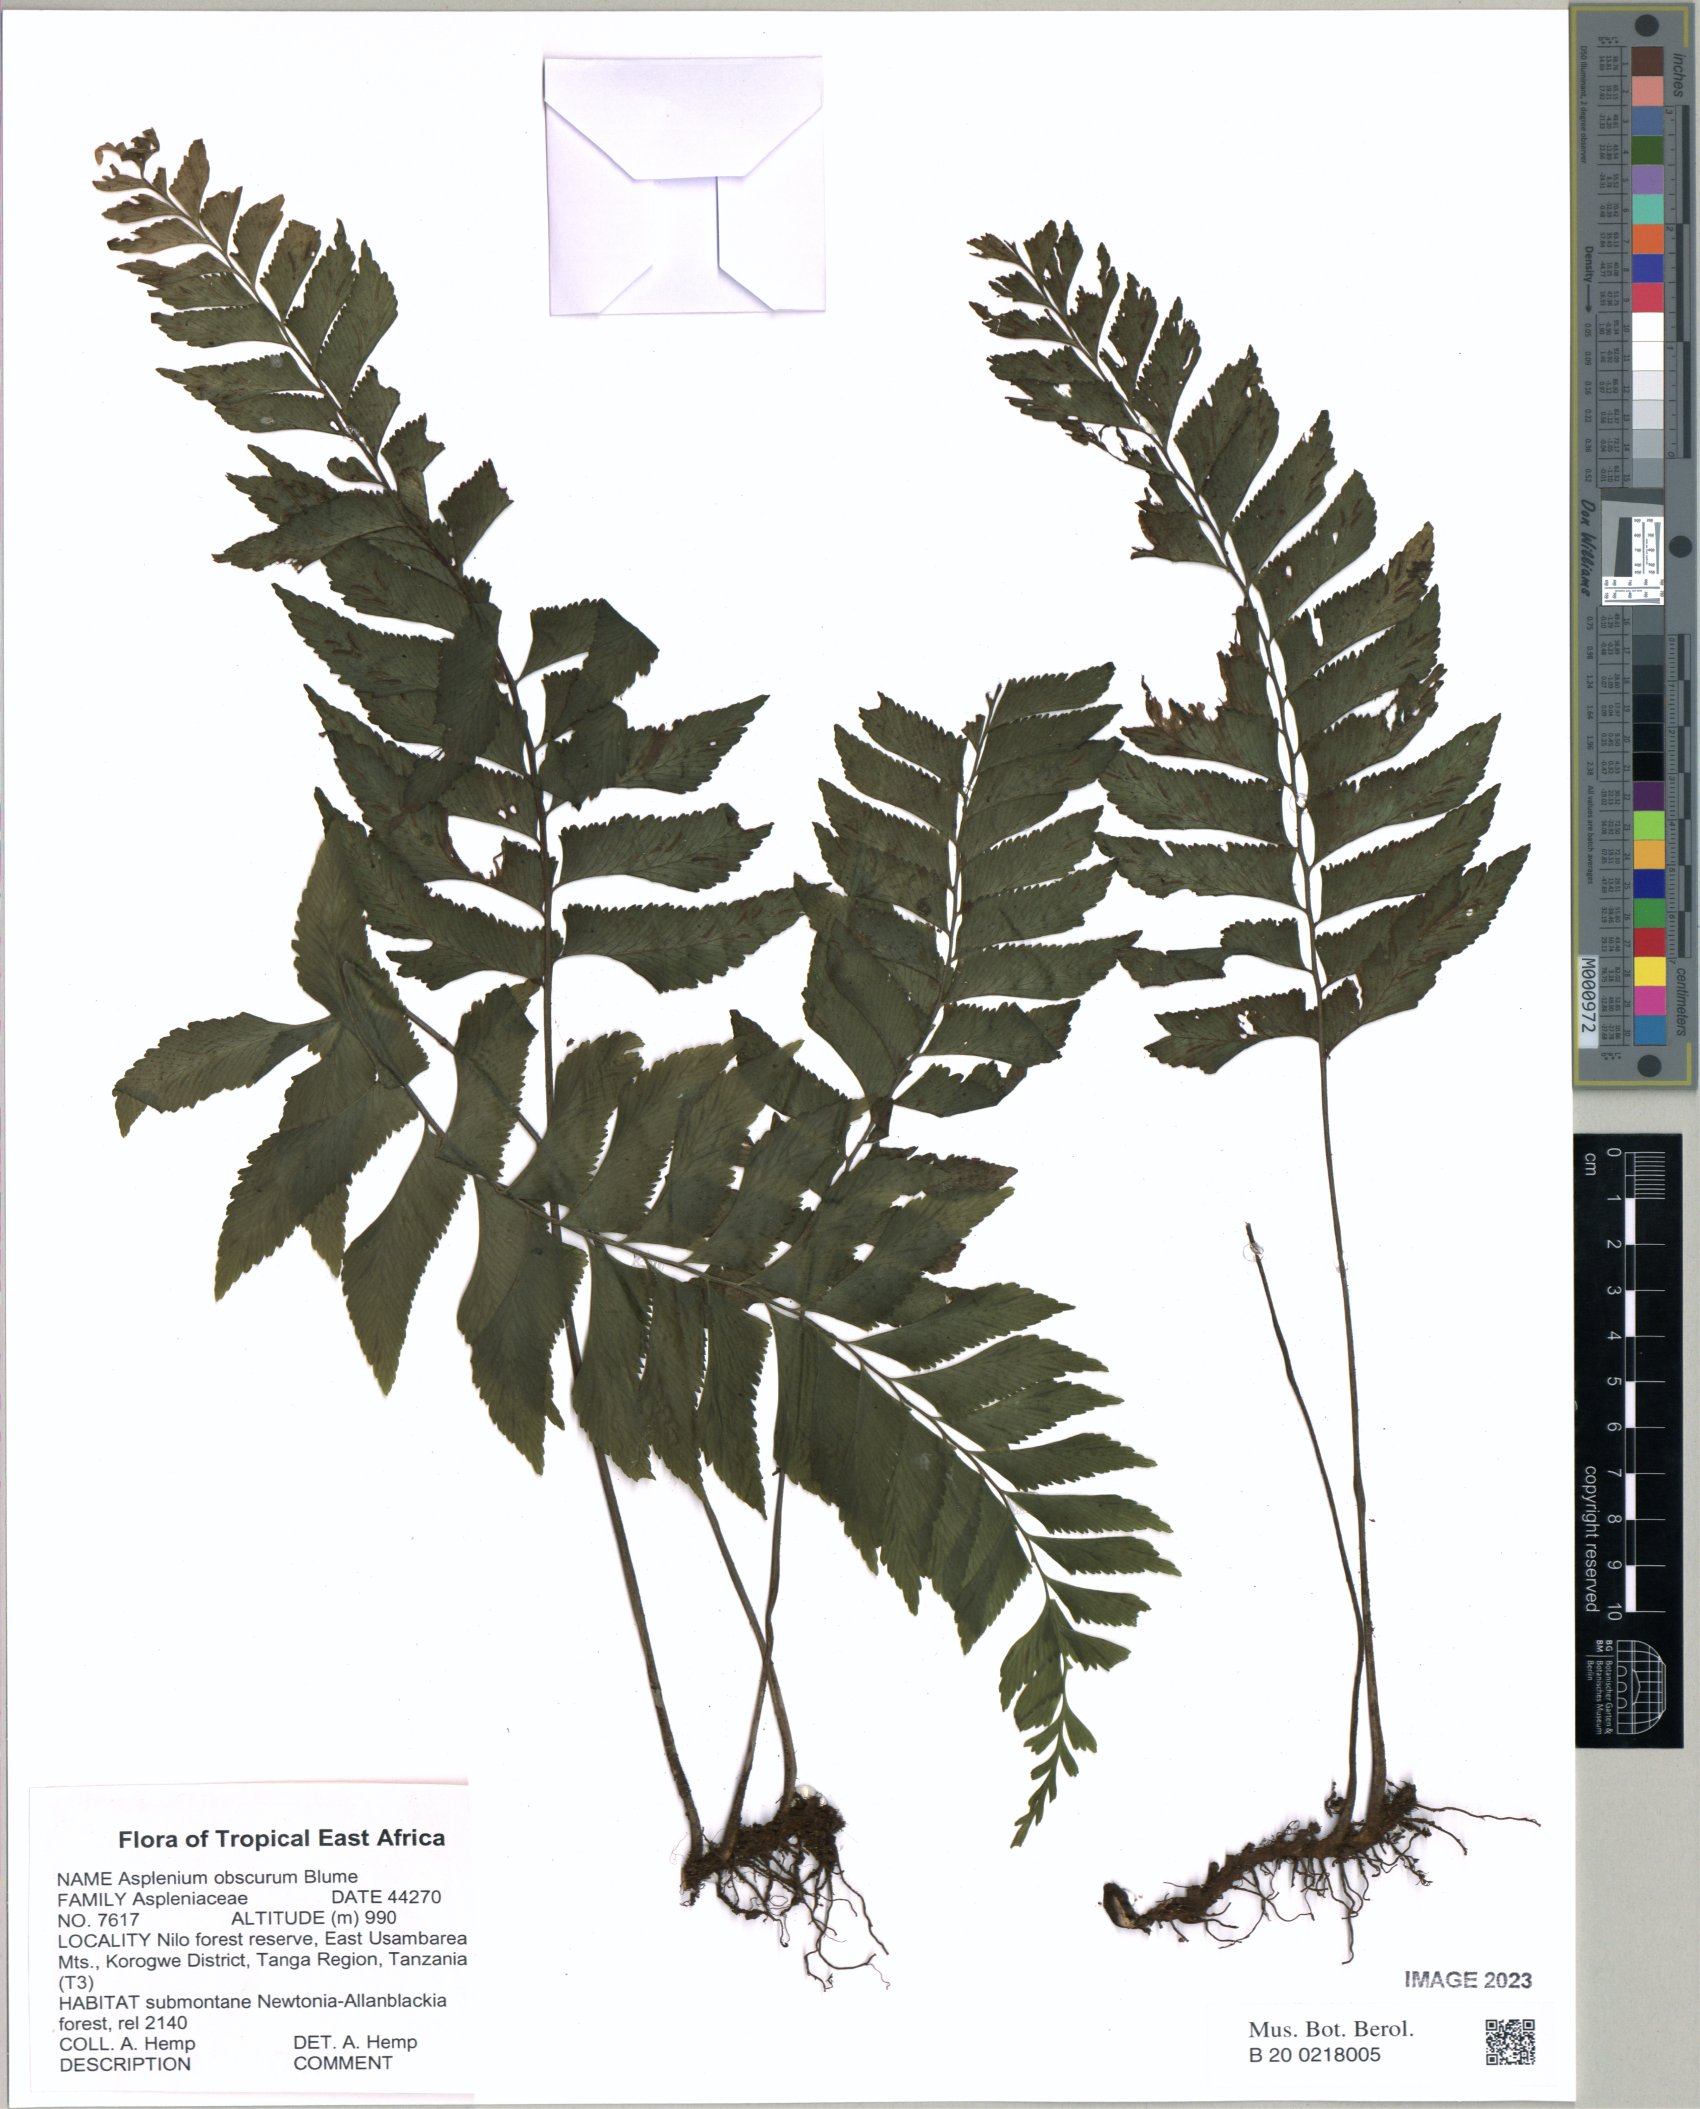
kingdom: Plantae
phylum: Tracheophyta
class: Polypodiopsida
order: Polypodiales
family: Aspleniaceae
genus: Hymenasplenium
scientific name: Hymenasplenium obscurum
